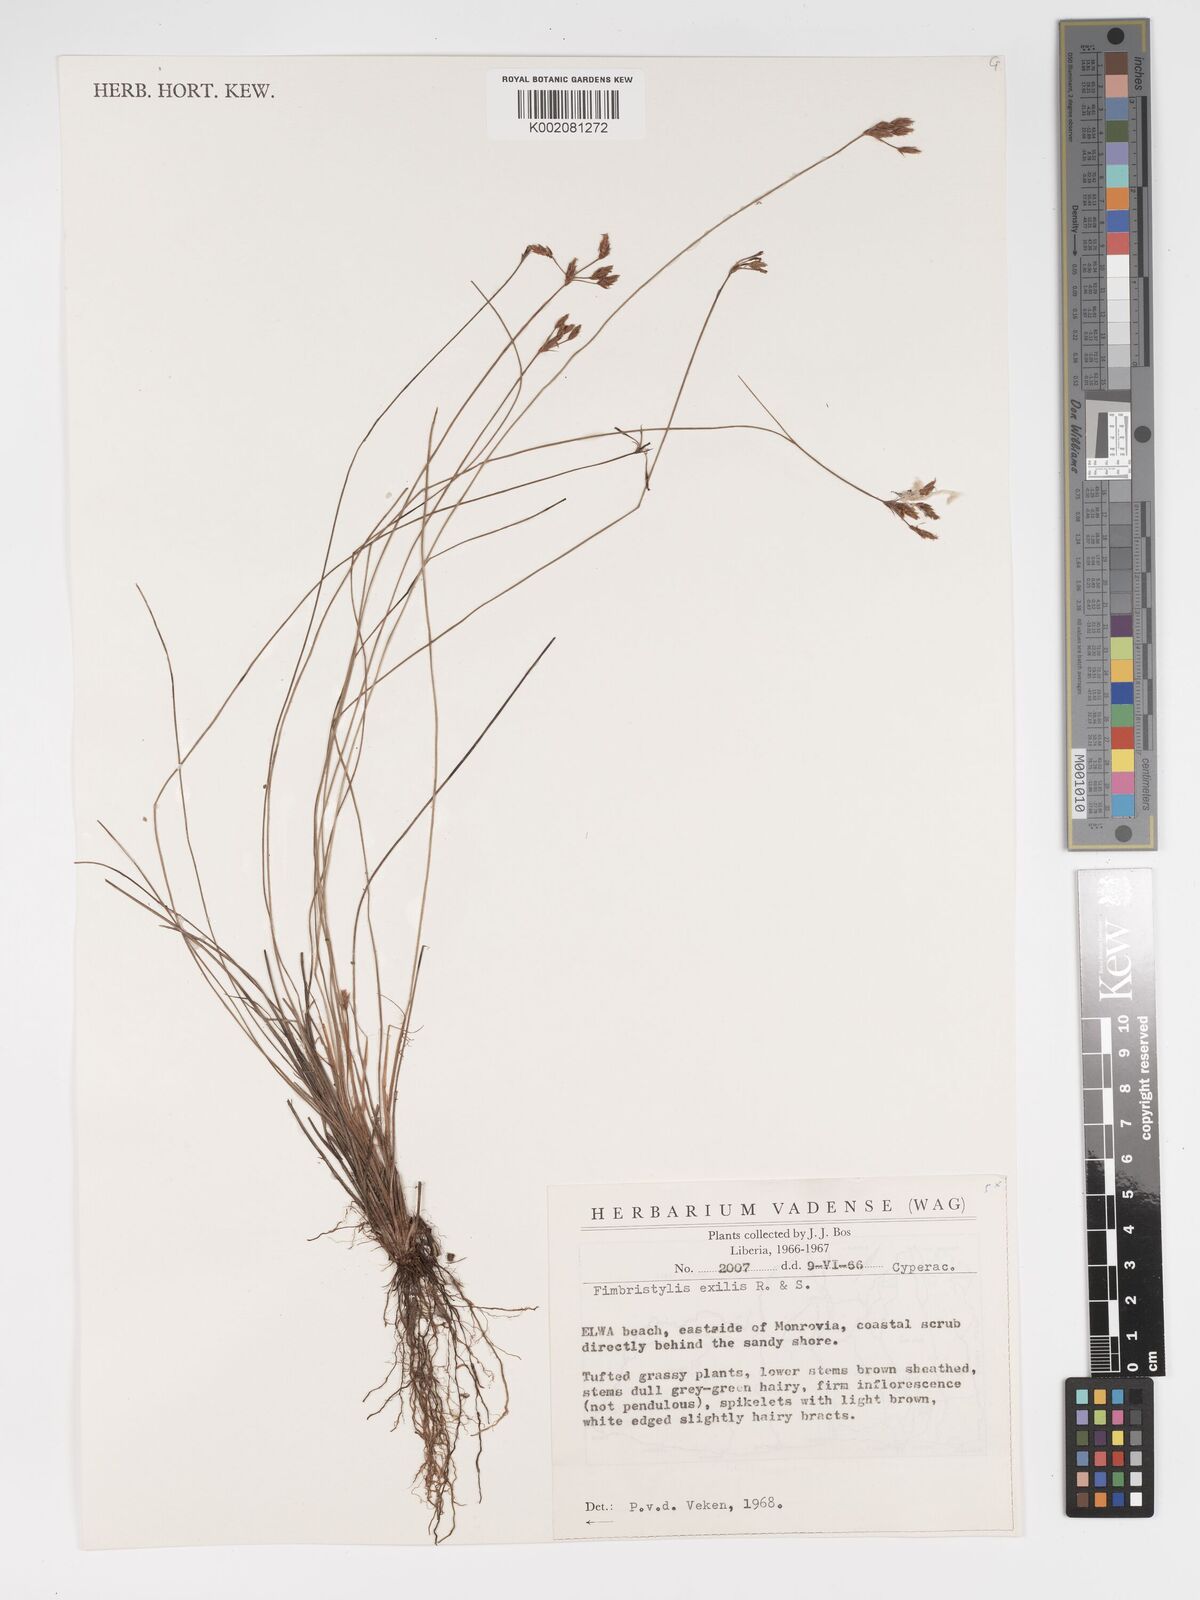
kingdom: Plantae
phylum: Tracheophyta
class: Liliopsida
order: Poales
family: Cyperaceae
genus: Bulbostylis
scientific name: Bulbostylis hispidula
